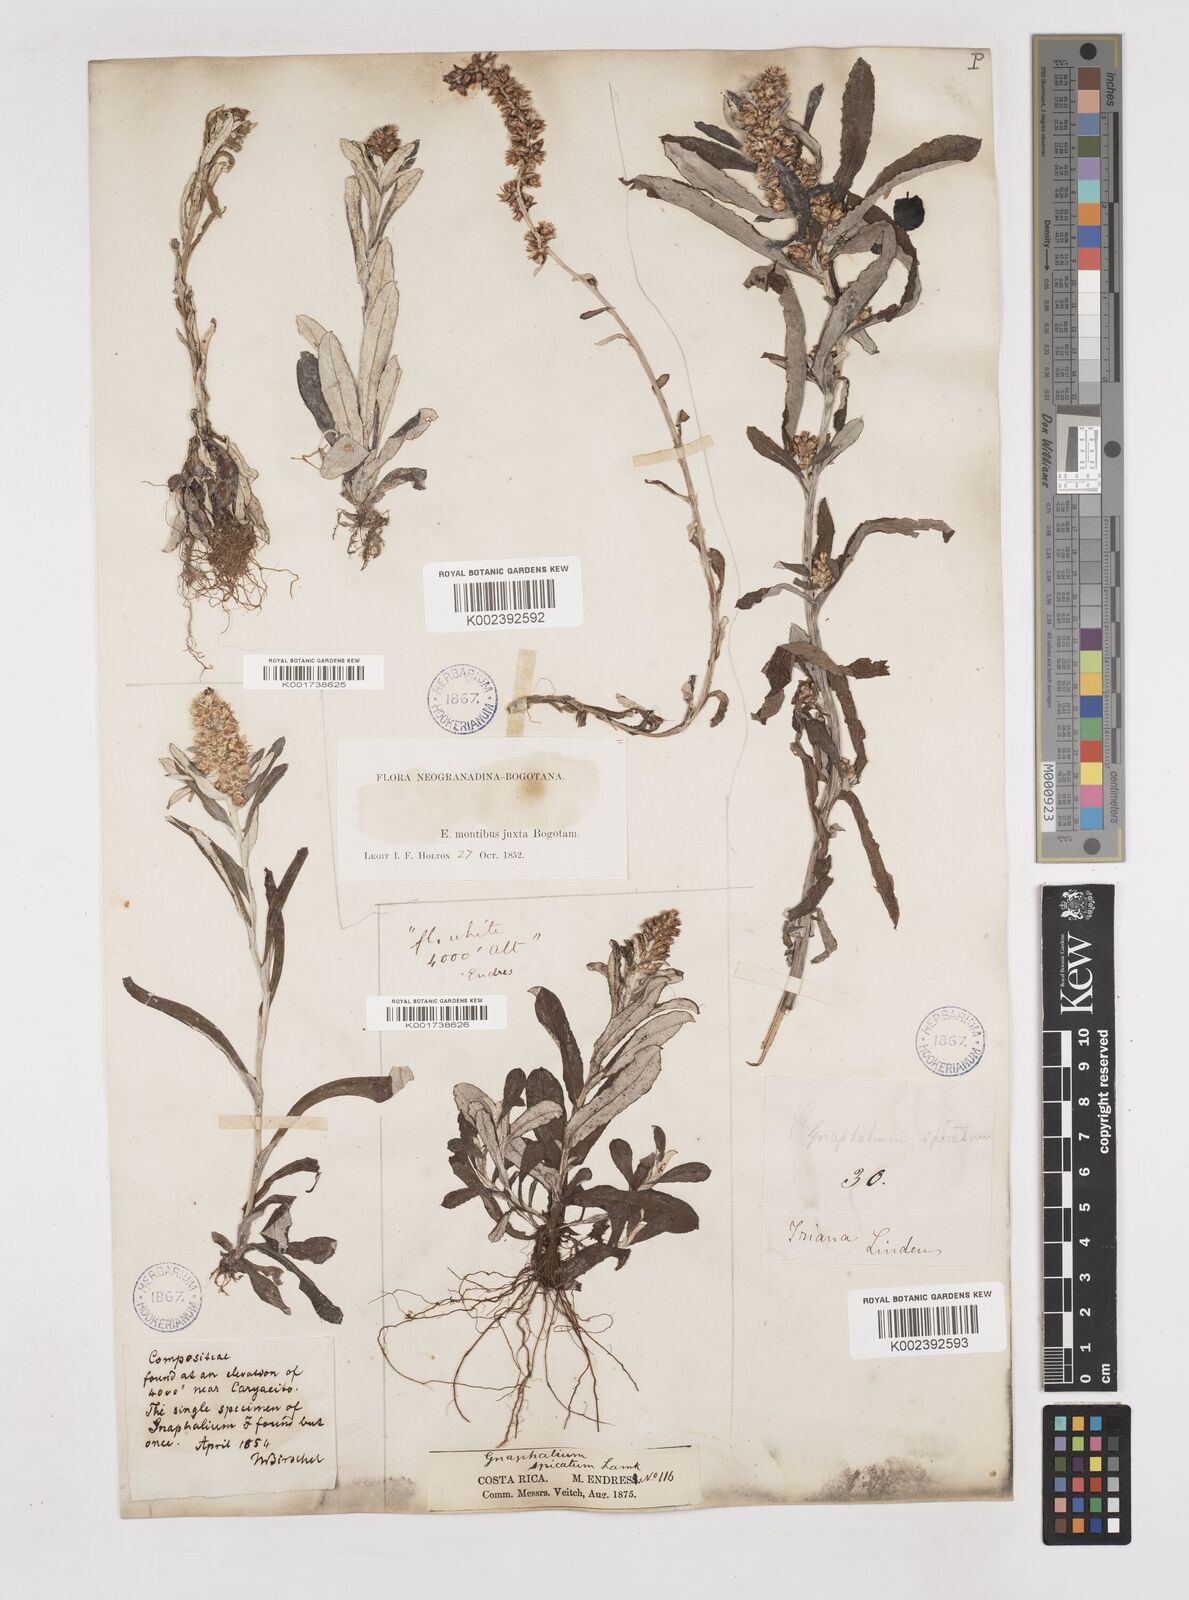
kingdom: Plantae
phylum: Tracheophyta
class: Magnoliopsida
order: Asterales
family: Asteraceae
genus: Gamochaeta
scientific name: Gamochaeta americana
